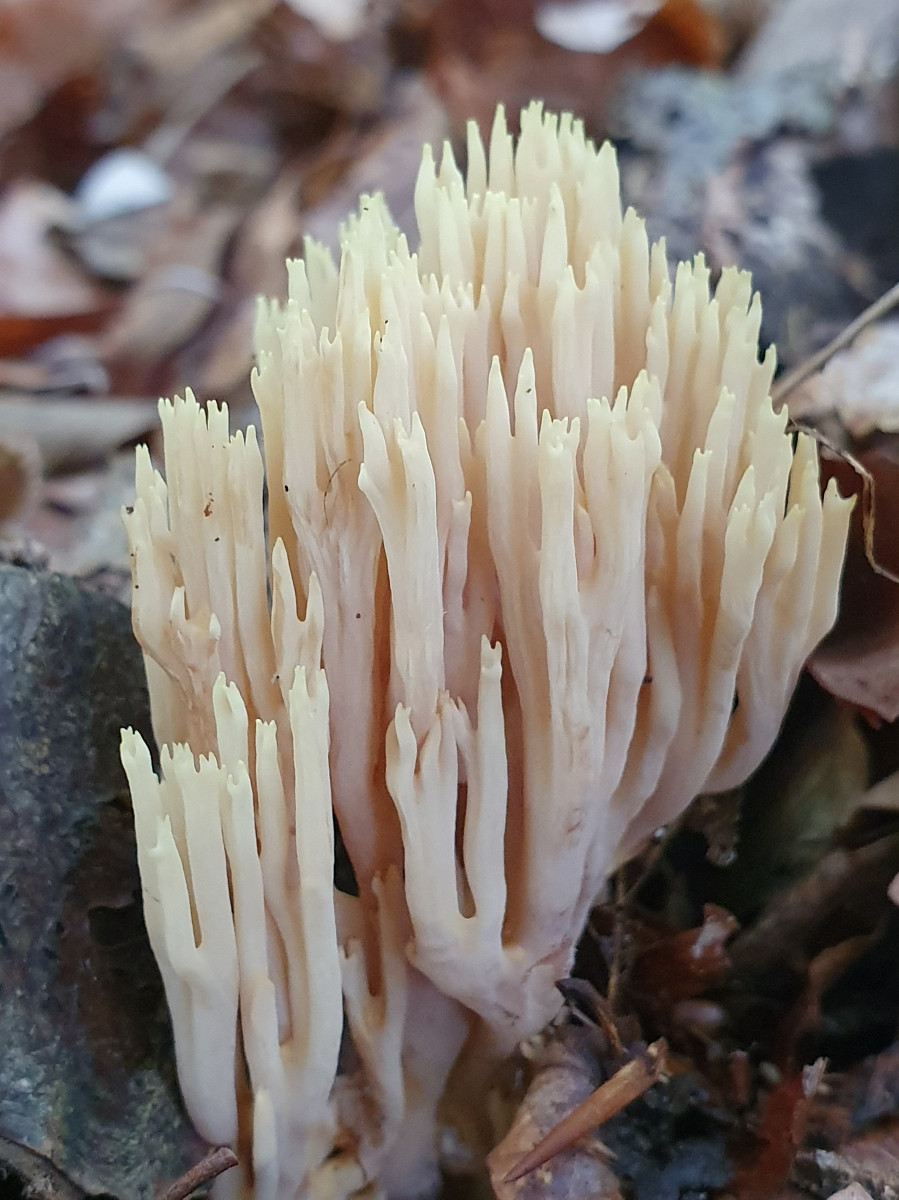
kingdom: Fungi
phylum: Basidiomycota
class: Agaricomycetes
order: Gomphales
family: Gomphaceae
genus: Ramaria
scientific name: Ramaria stricta
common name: rank koralsvamp
